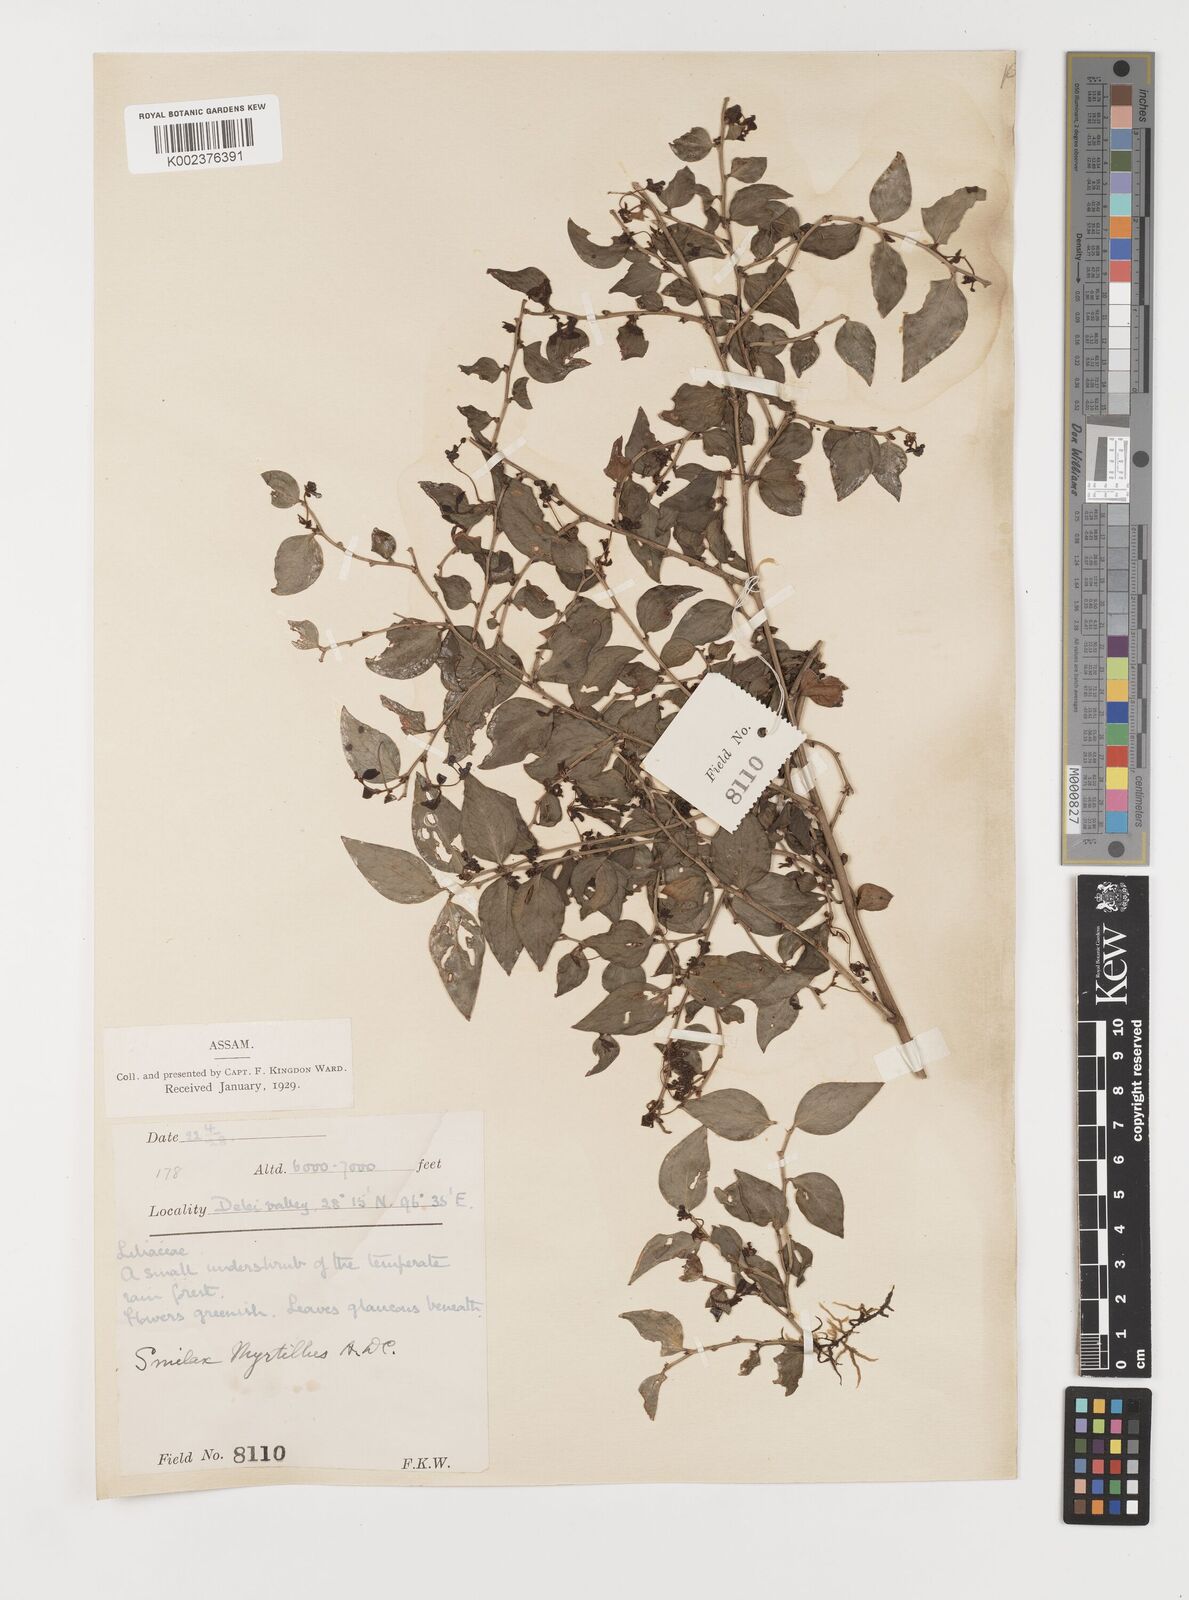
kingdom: Plantae
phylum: Tracheophyta
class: Liliopsida
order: Liliales
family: Smilacaceae
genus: Smilax
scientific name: Smilax myrtillus
